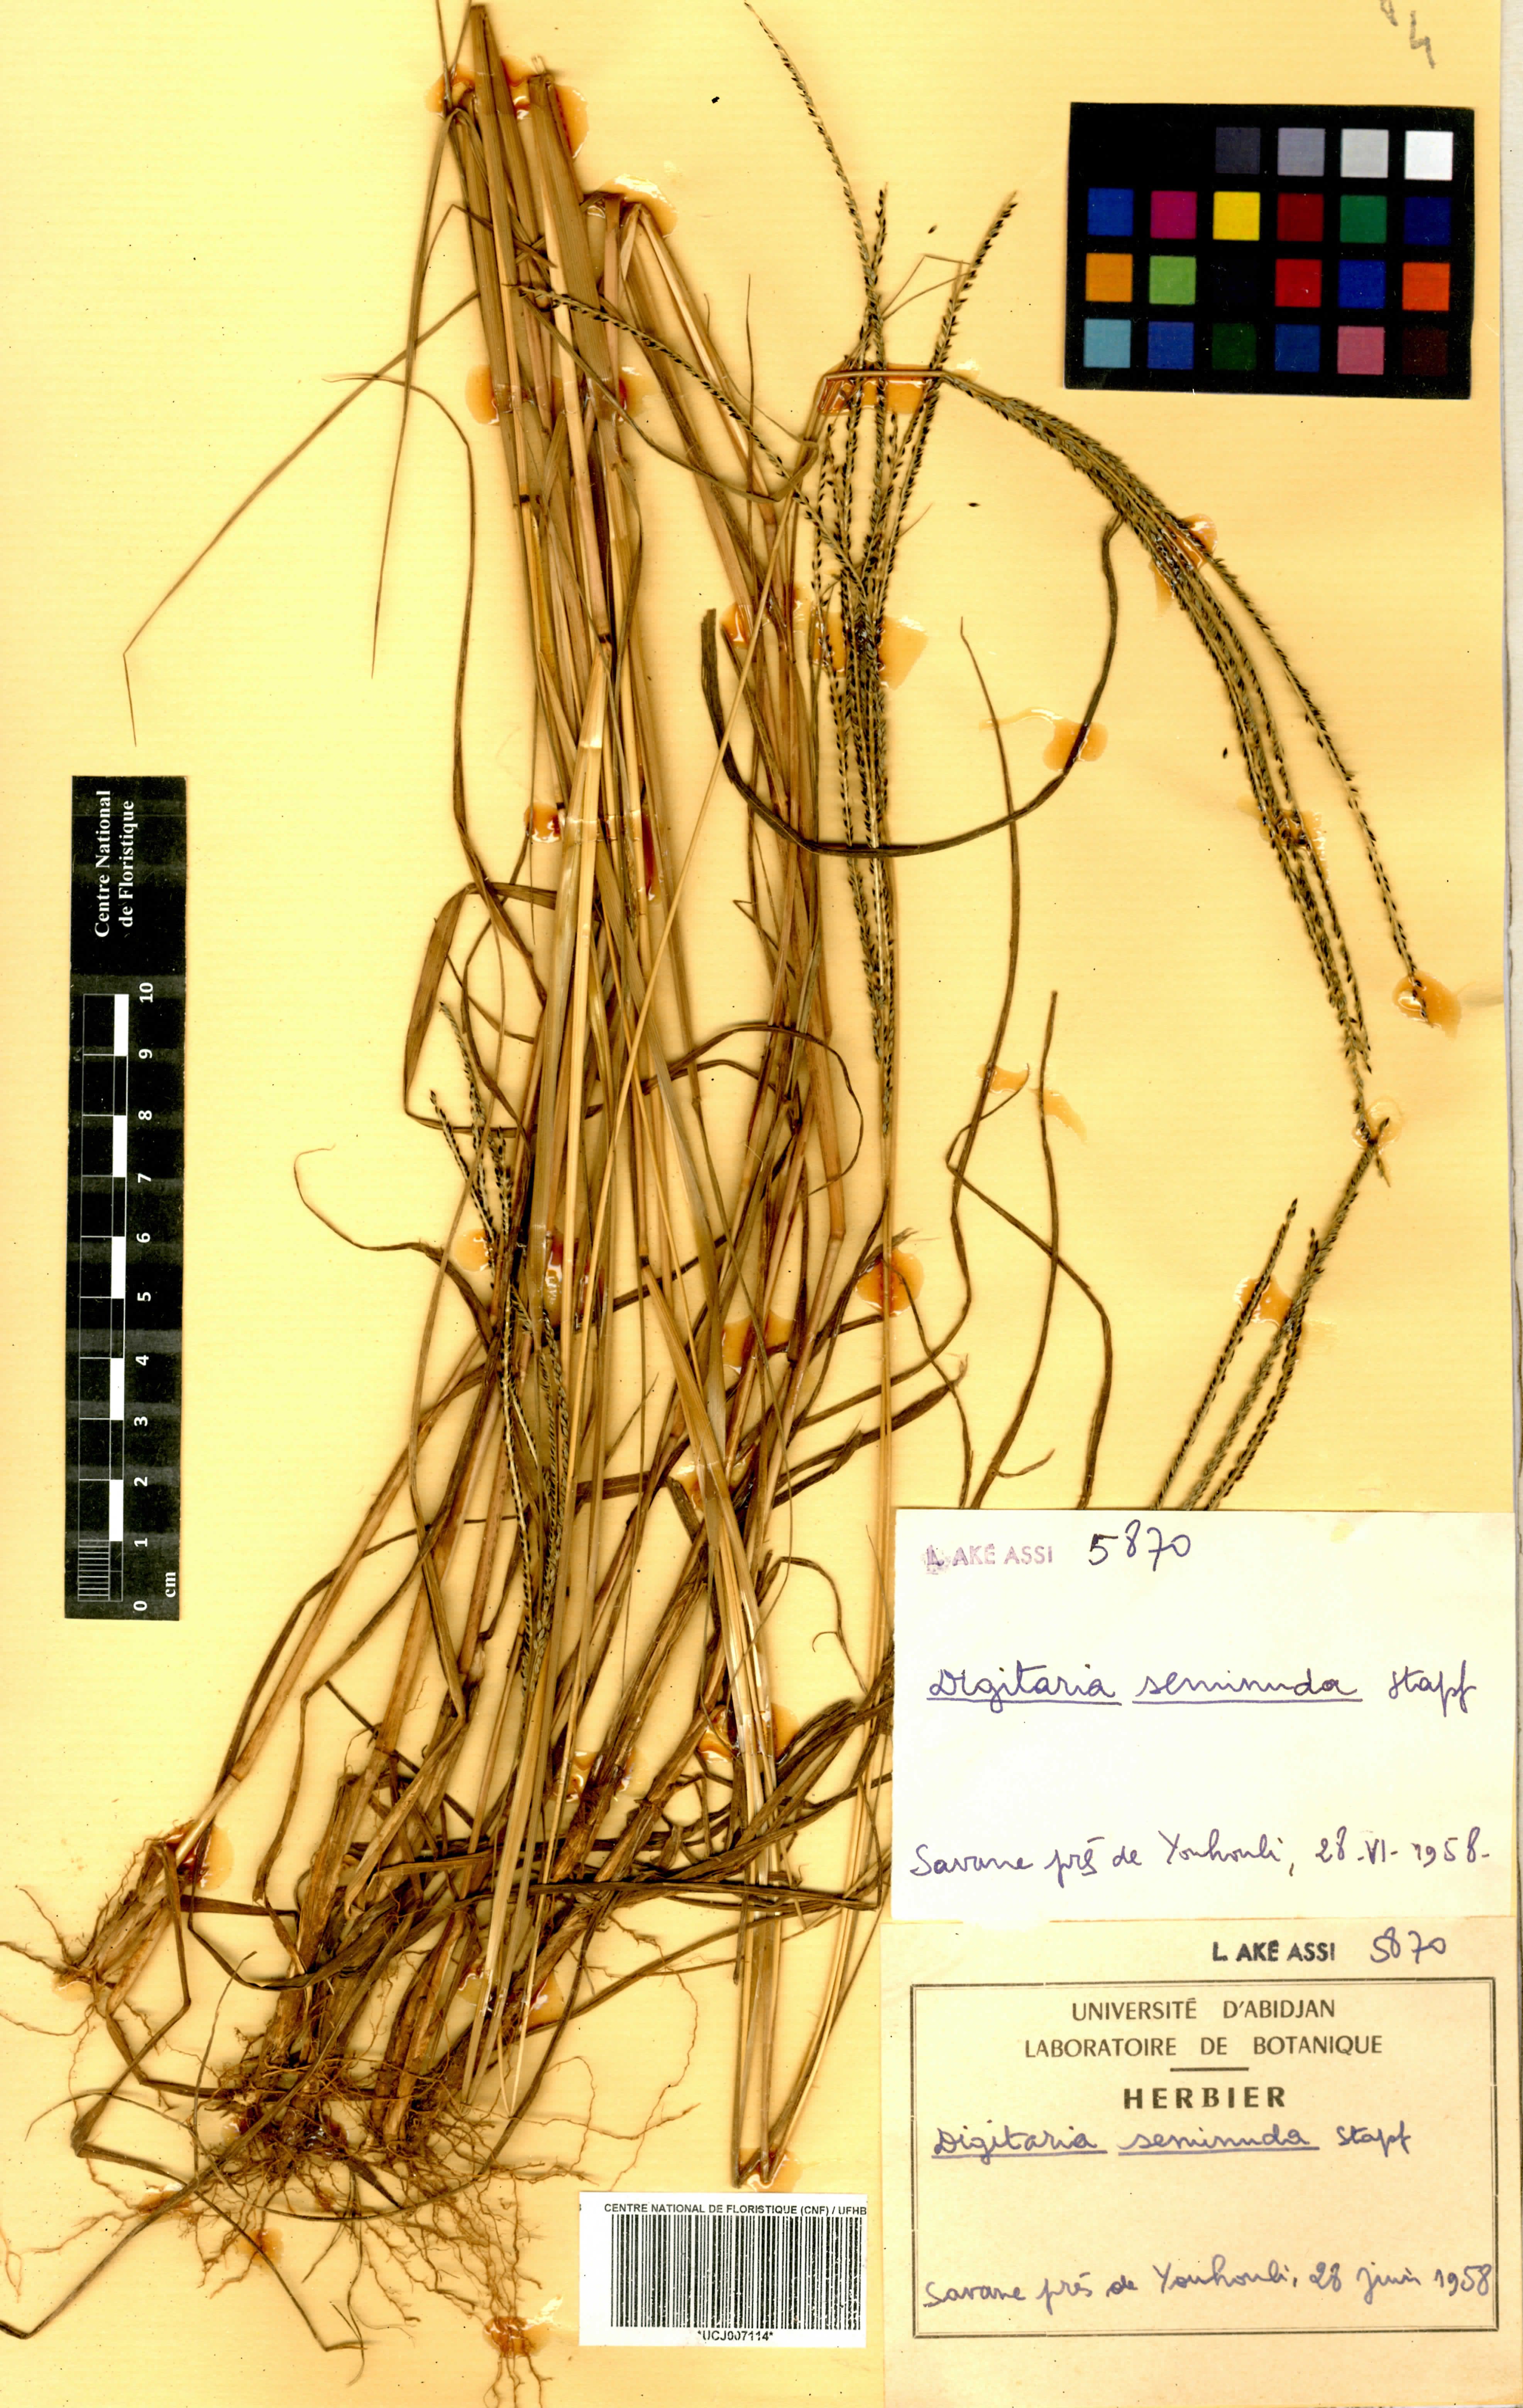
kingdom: Plantae
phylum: Tracheophyta
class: Liliopsida
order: Poales
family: Poaceae
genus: Digitaria
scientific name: Digitaria atrofusca
